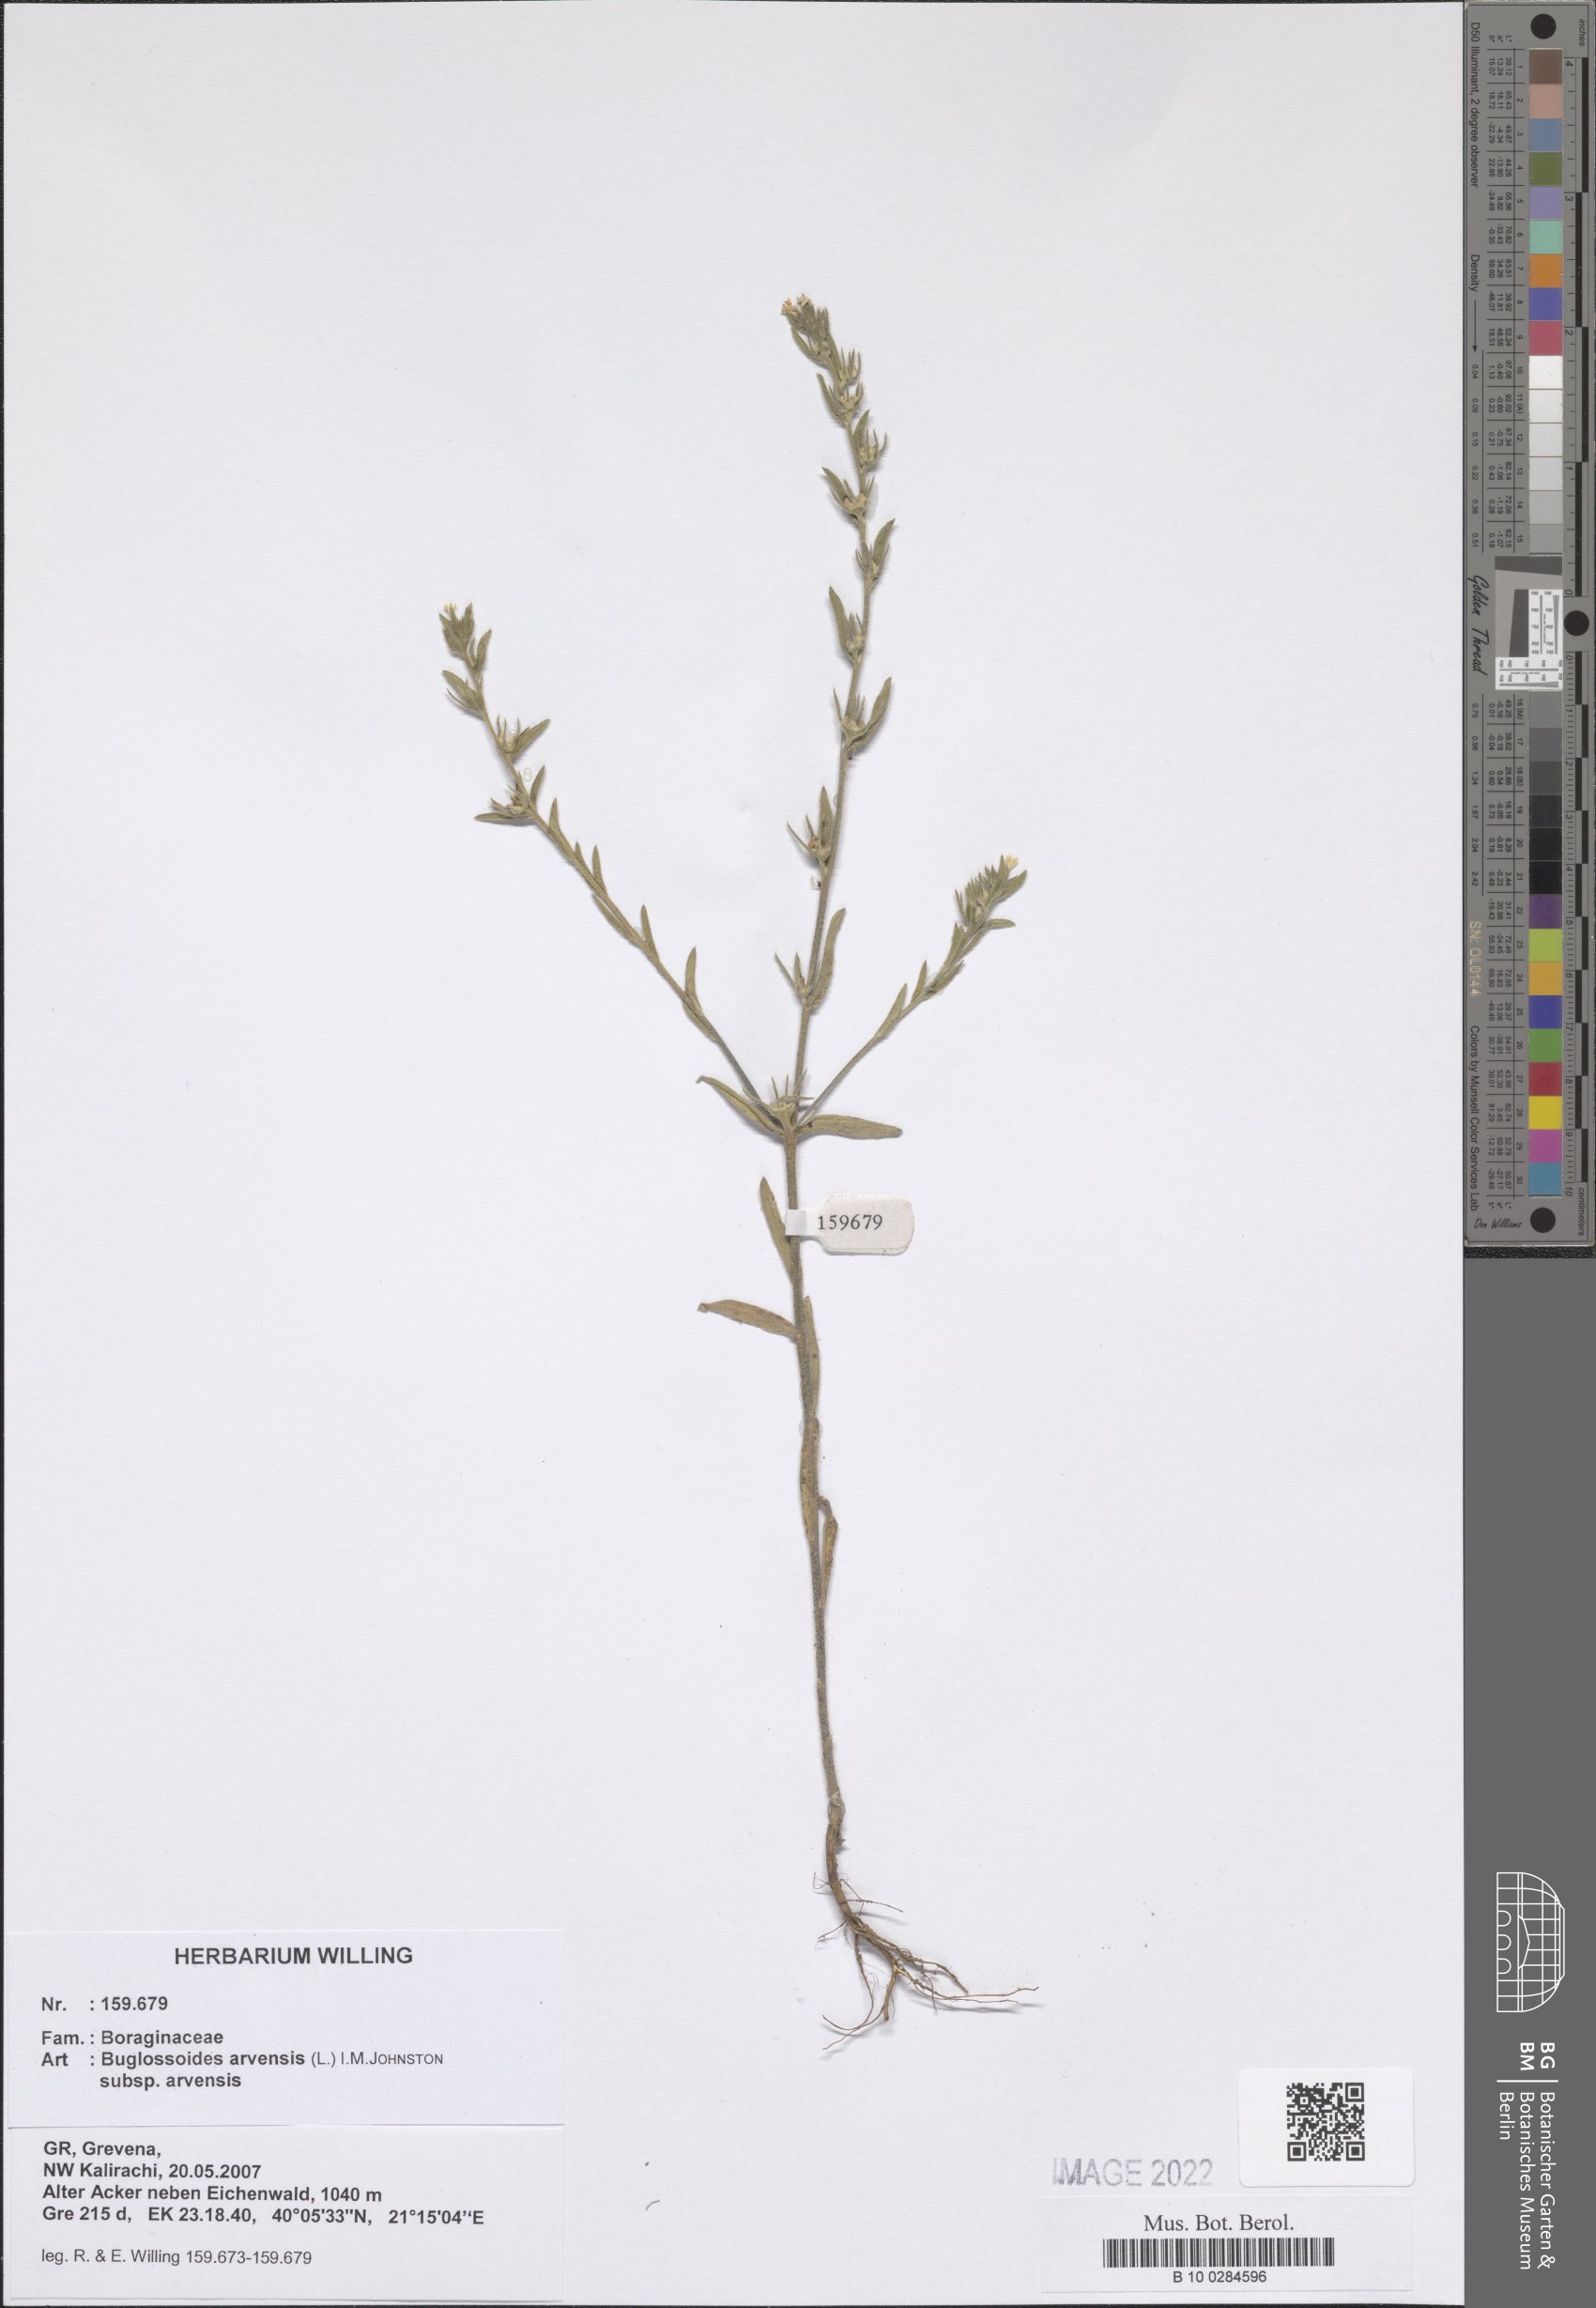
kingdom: Plantae
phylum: Tracheophyta
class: Magnoliopsida
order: Boraginales
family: Boraginaceae
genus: Buglossoides
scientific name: Buglossoides arvensis
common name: Corn gromwell
